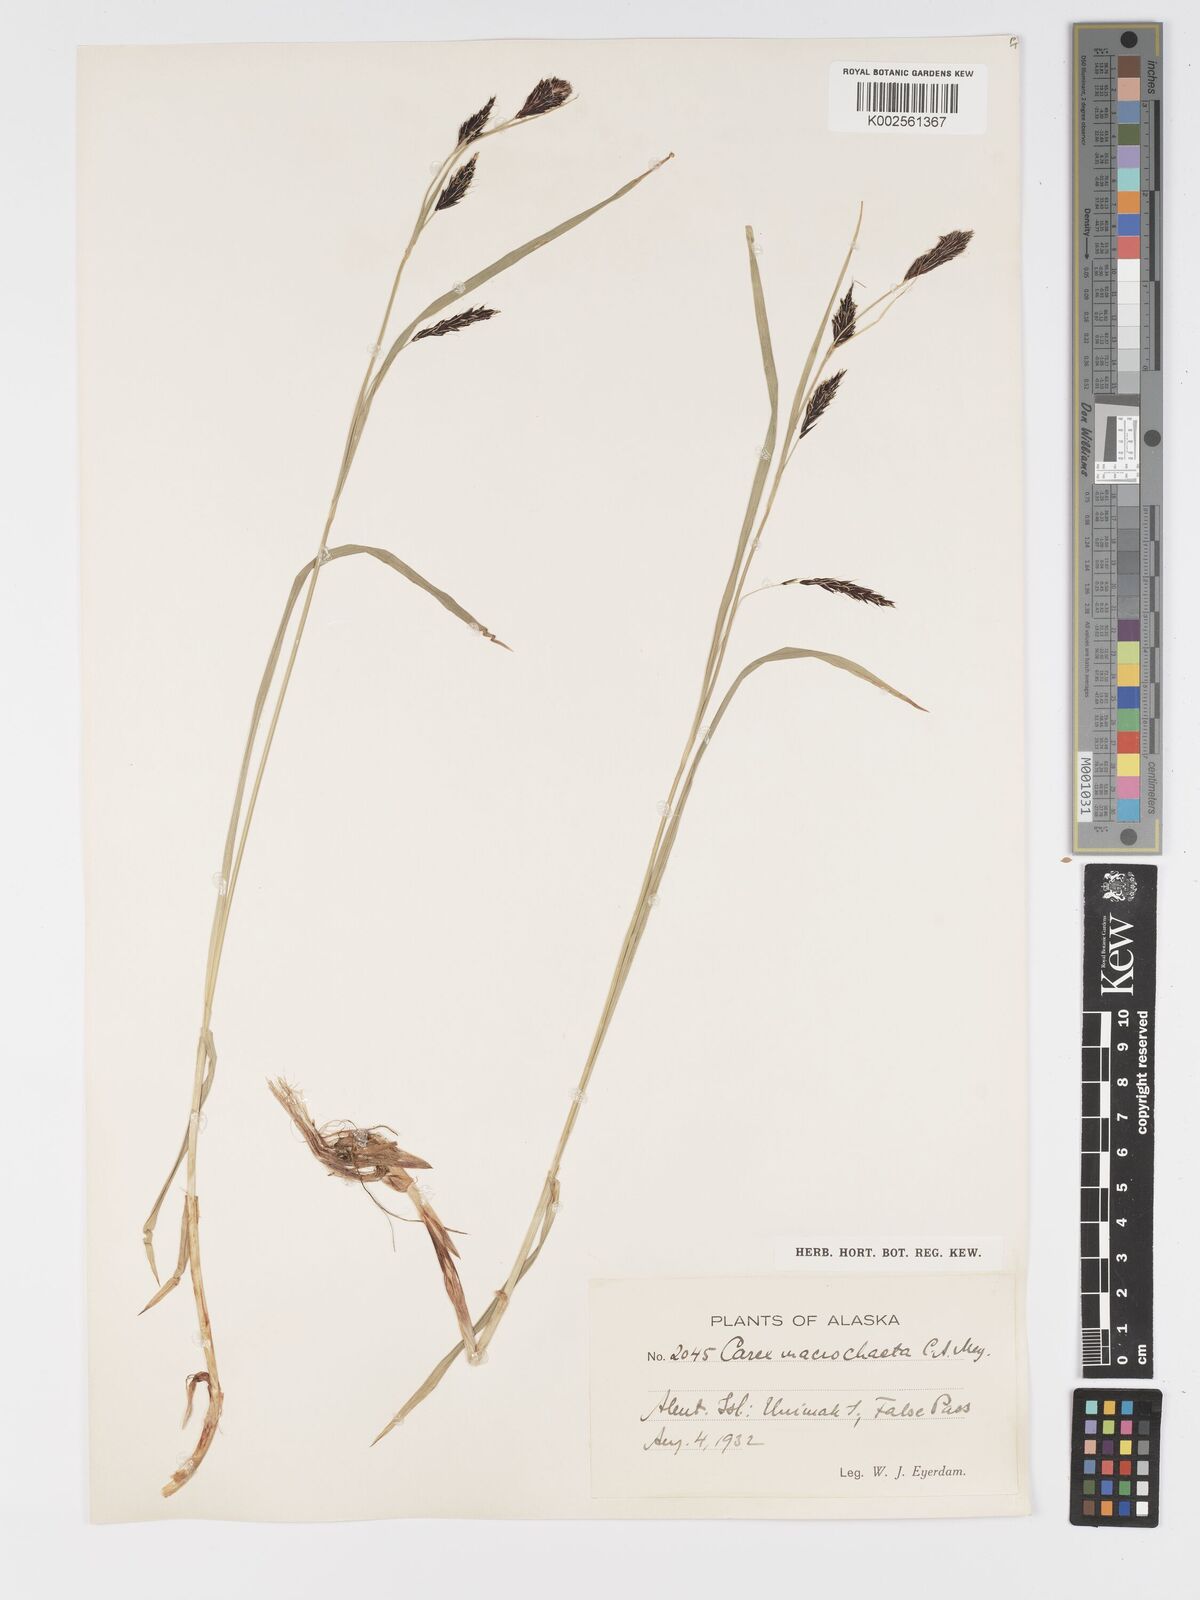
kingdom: Plantae
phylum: Tracheophyta
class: Liliopsida
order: Poales
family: Cyperaceae
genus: Carex
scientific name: Carex macrochaeta
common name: Alaska large awn sedge
